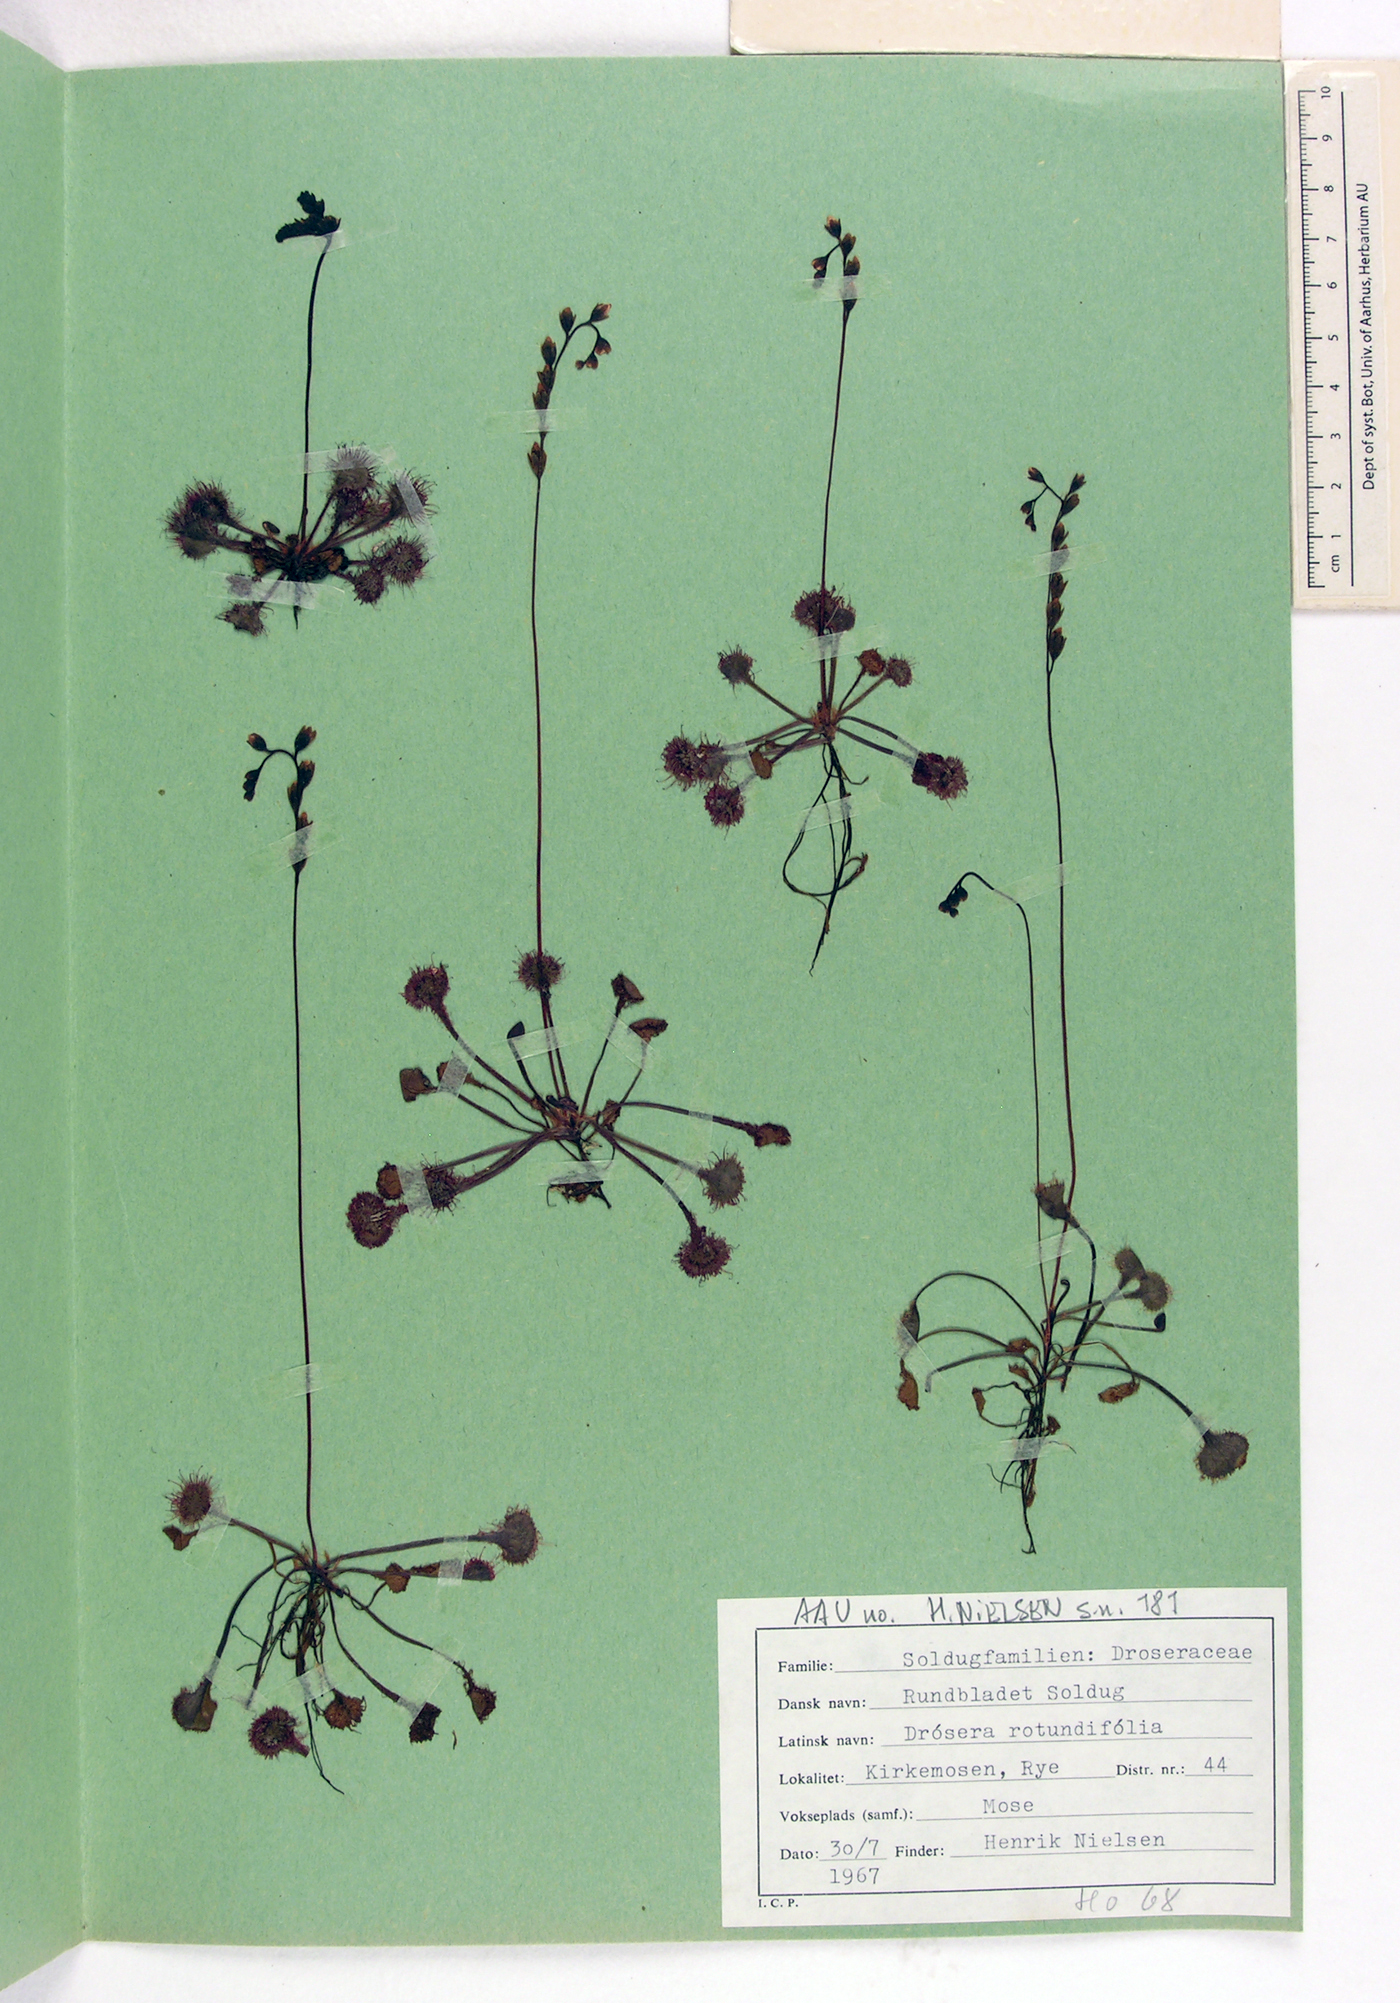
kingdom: Plantae
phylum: Tracheophyta
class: Magnoliopsida
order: Caryophyllales
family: Droseraceae
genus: Drosera
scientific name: Drosera rotundifolia
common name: Round-leaved sundew
